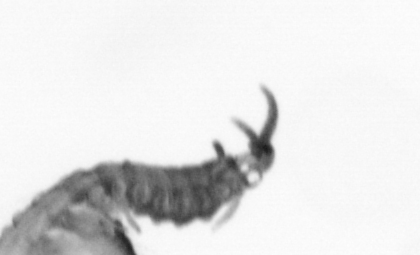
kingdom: Animalia
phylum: Annelida
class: Polychaeta
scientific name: Polychaeta
